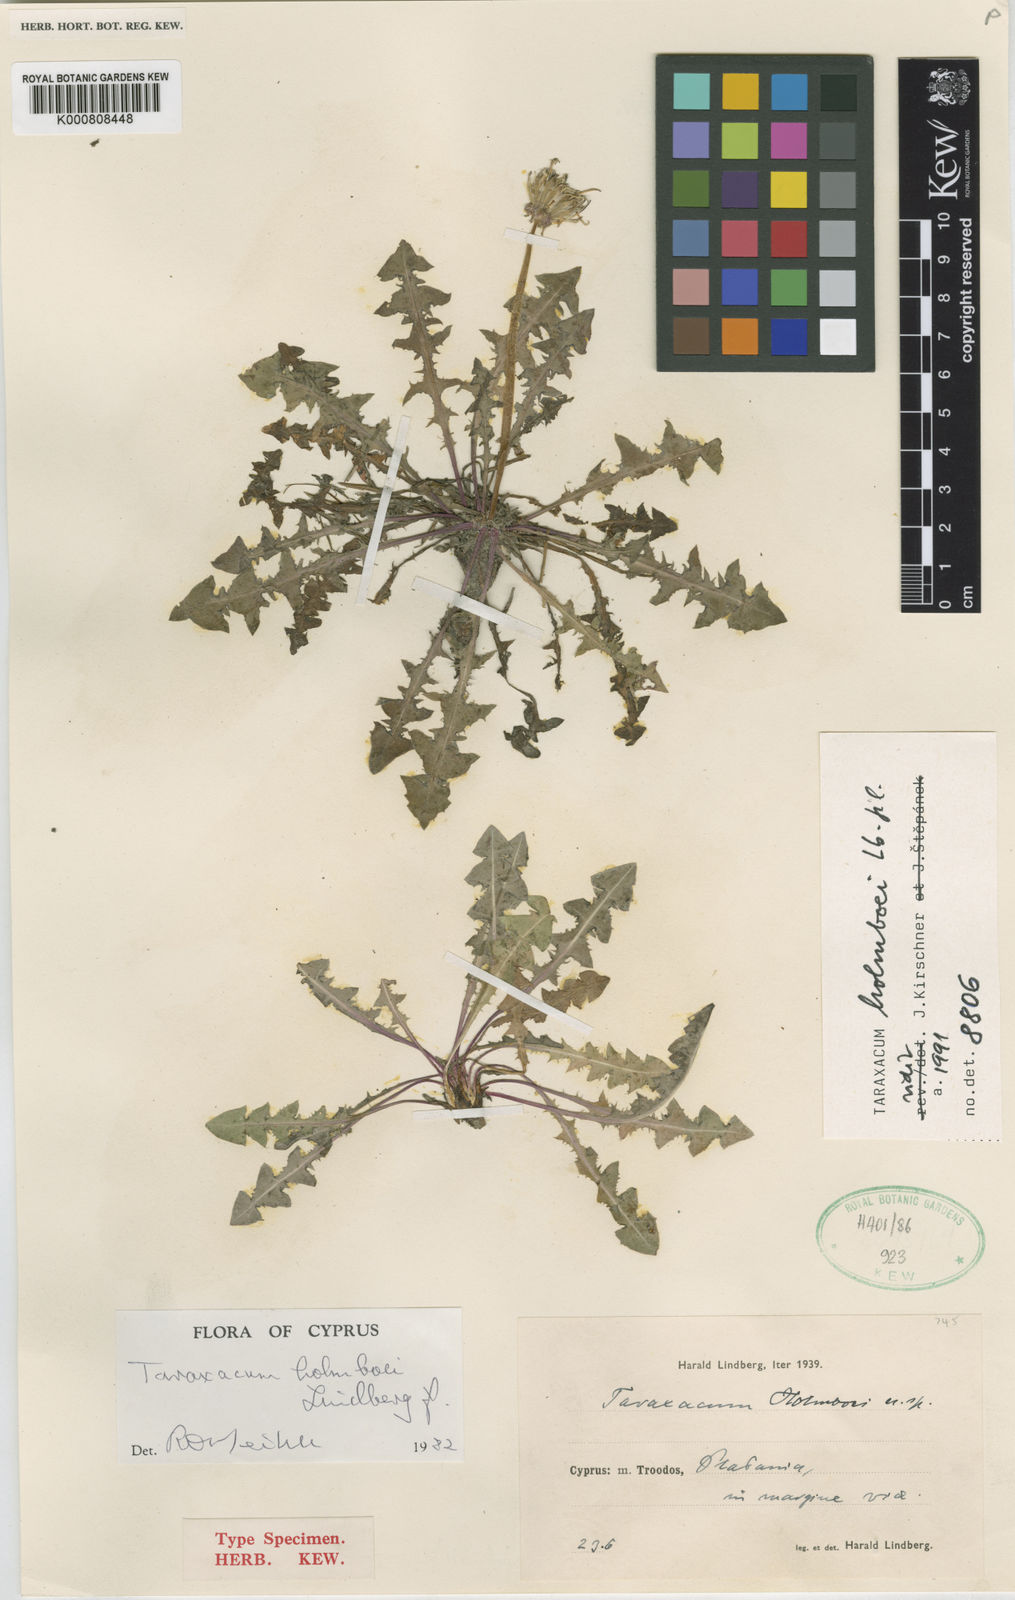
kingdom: Plantae
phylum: Tracheophyta
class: Magnoliopsida
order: Asterales
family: Asteraceae
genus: Taraxacum
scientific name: Taraxacum holmboei
